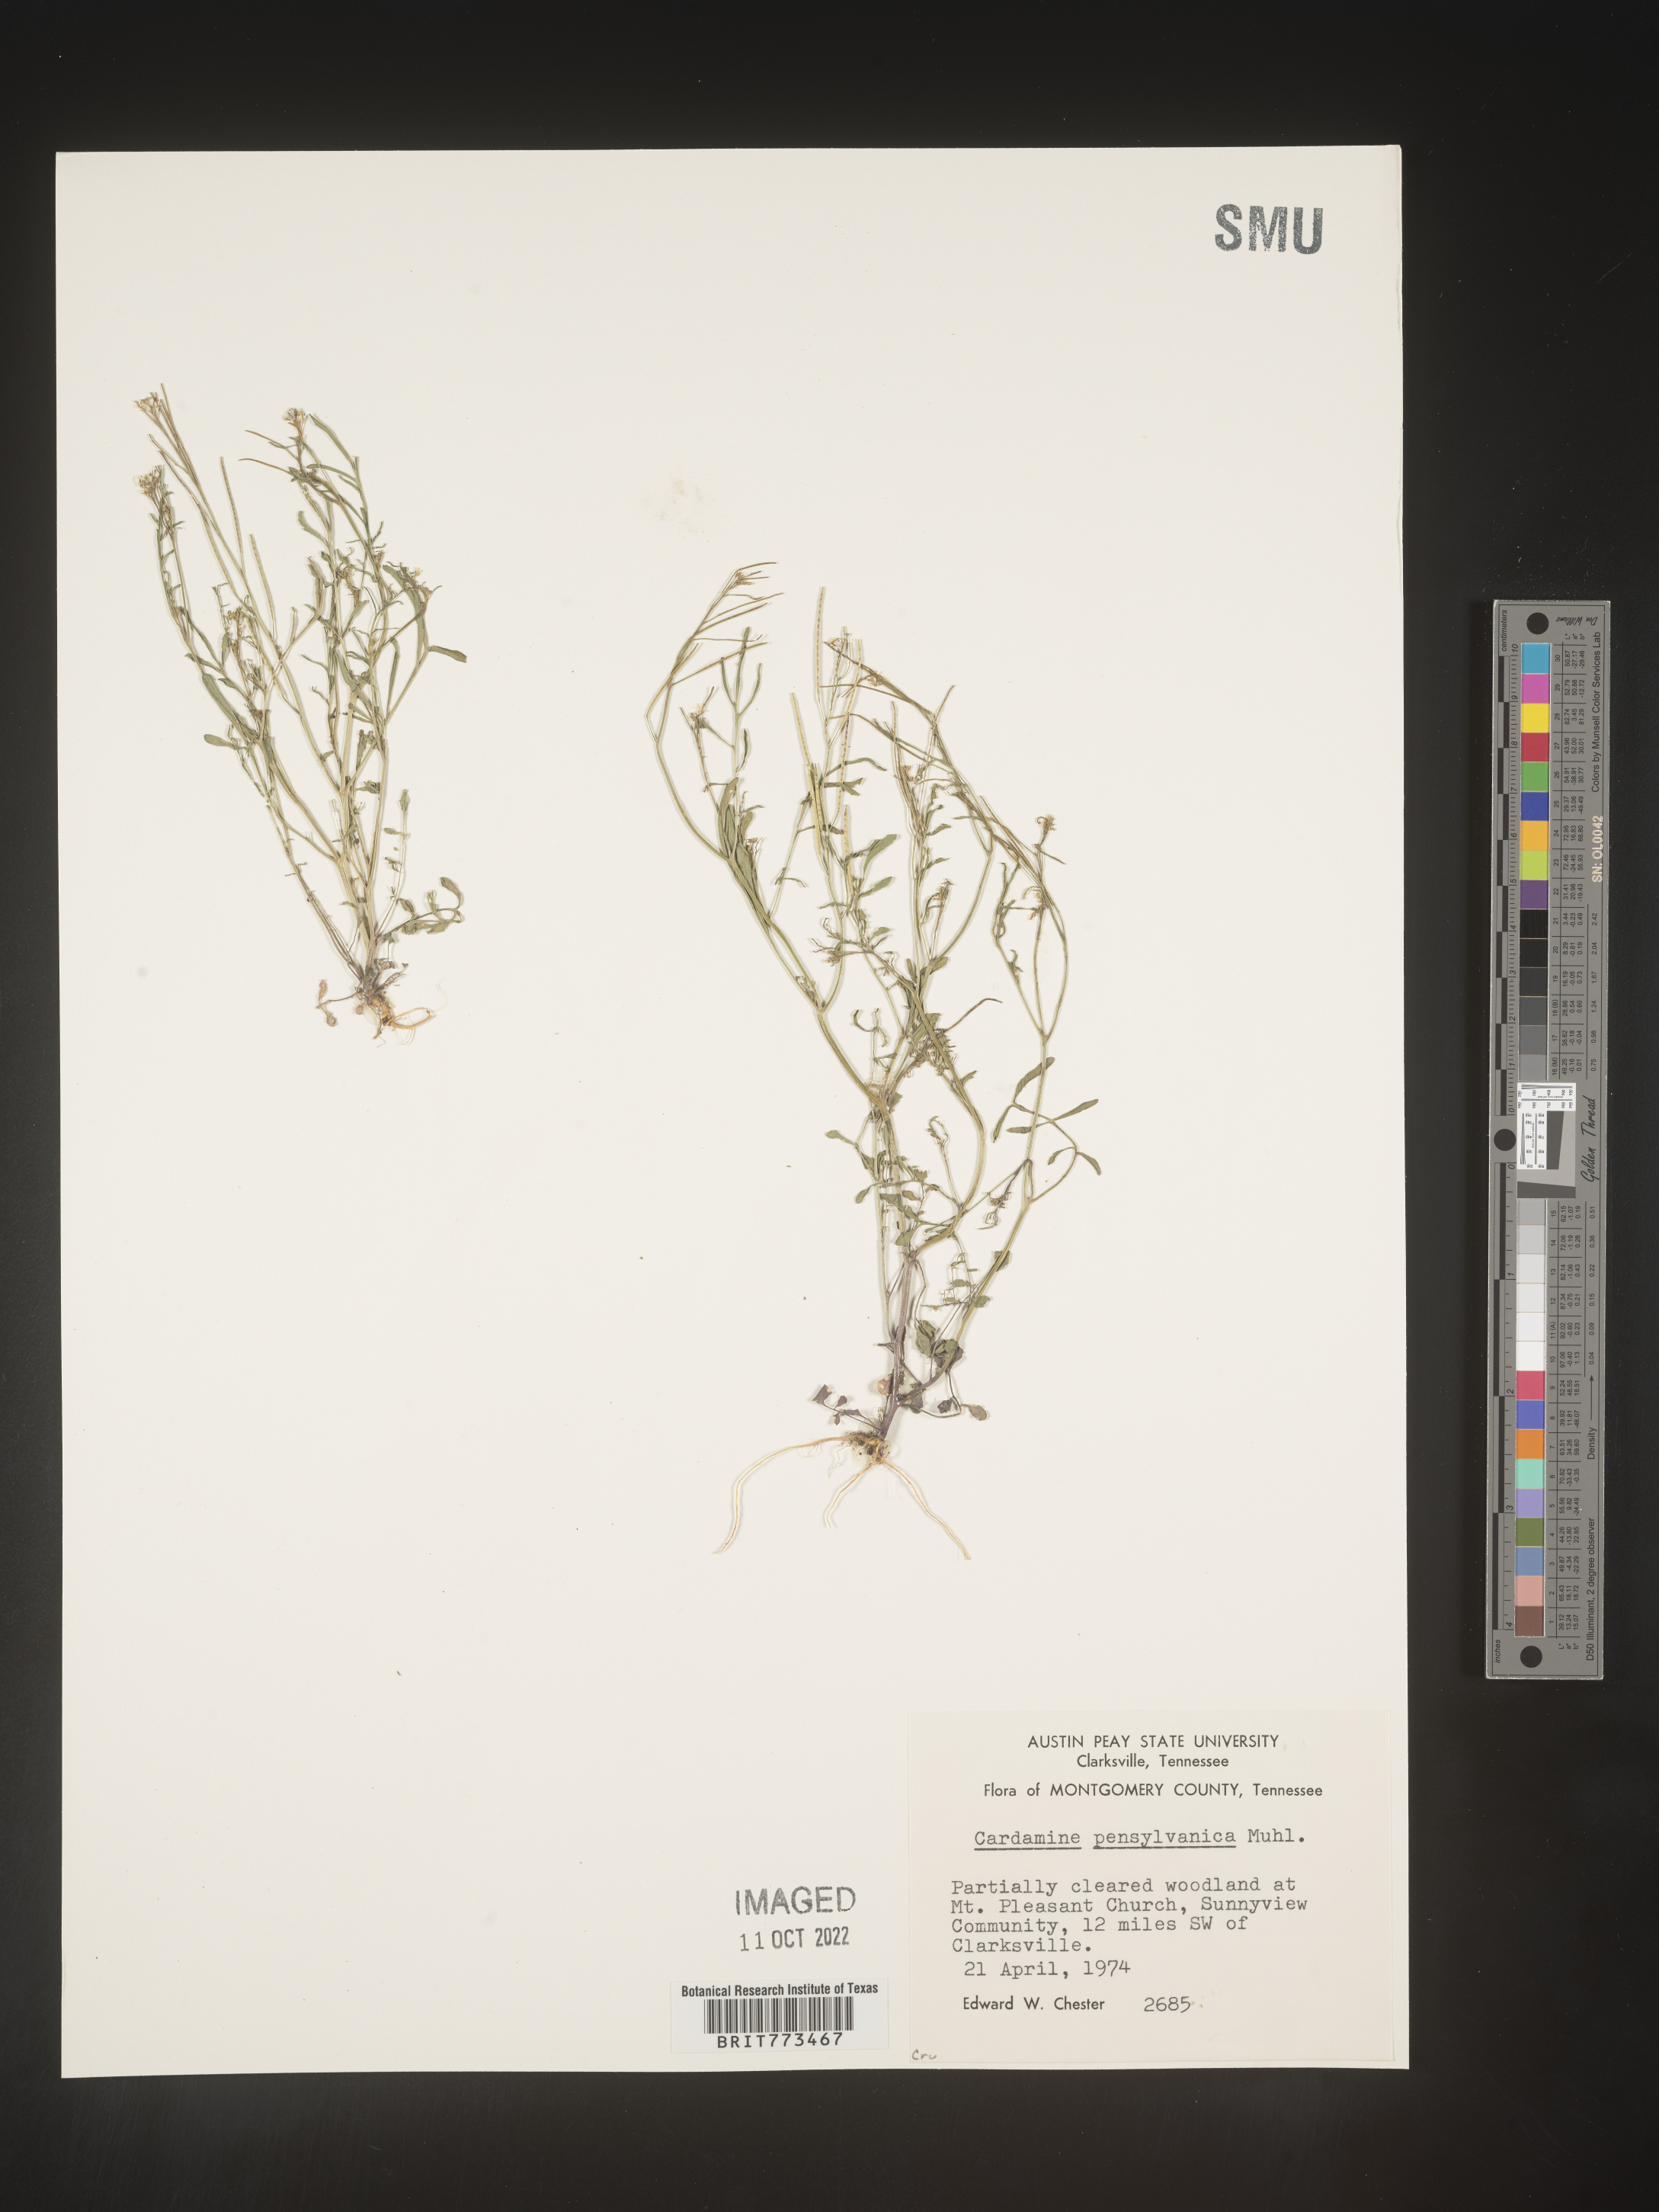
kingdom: Plantae
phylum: Tracheophyta
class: Magnoliopsida
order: Brassicales
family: Brassicaceae
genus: Cardamine
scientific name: Cardamine pensylvanica
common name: Pennsylvania bittercress
